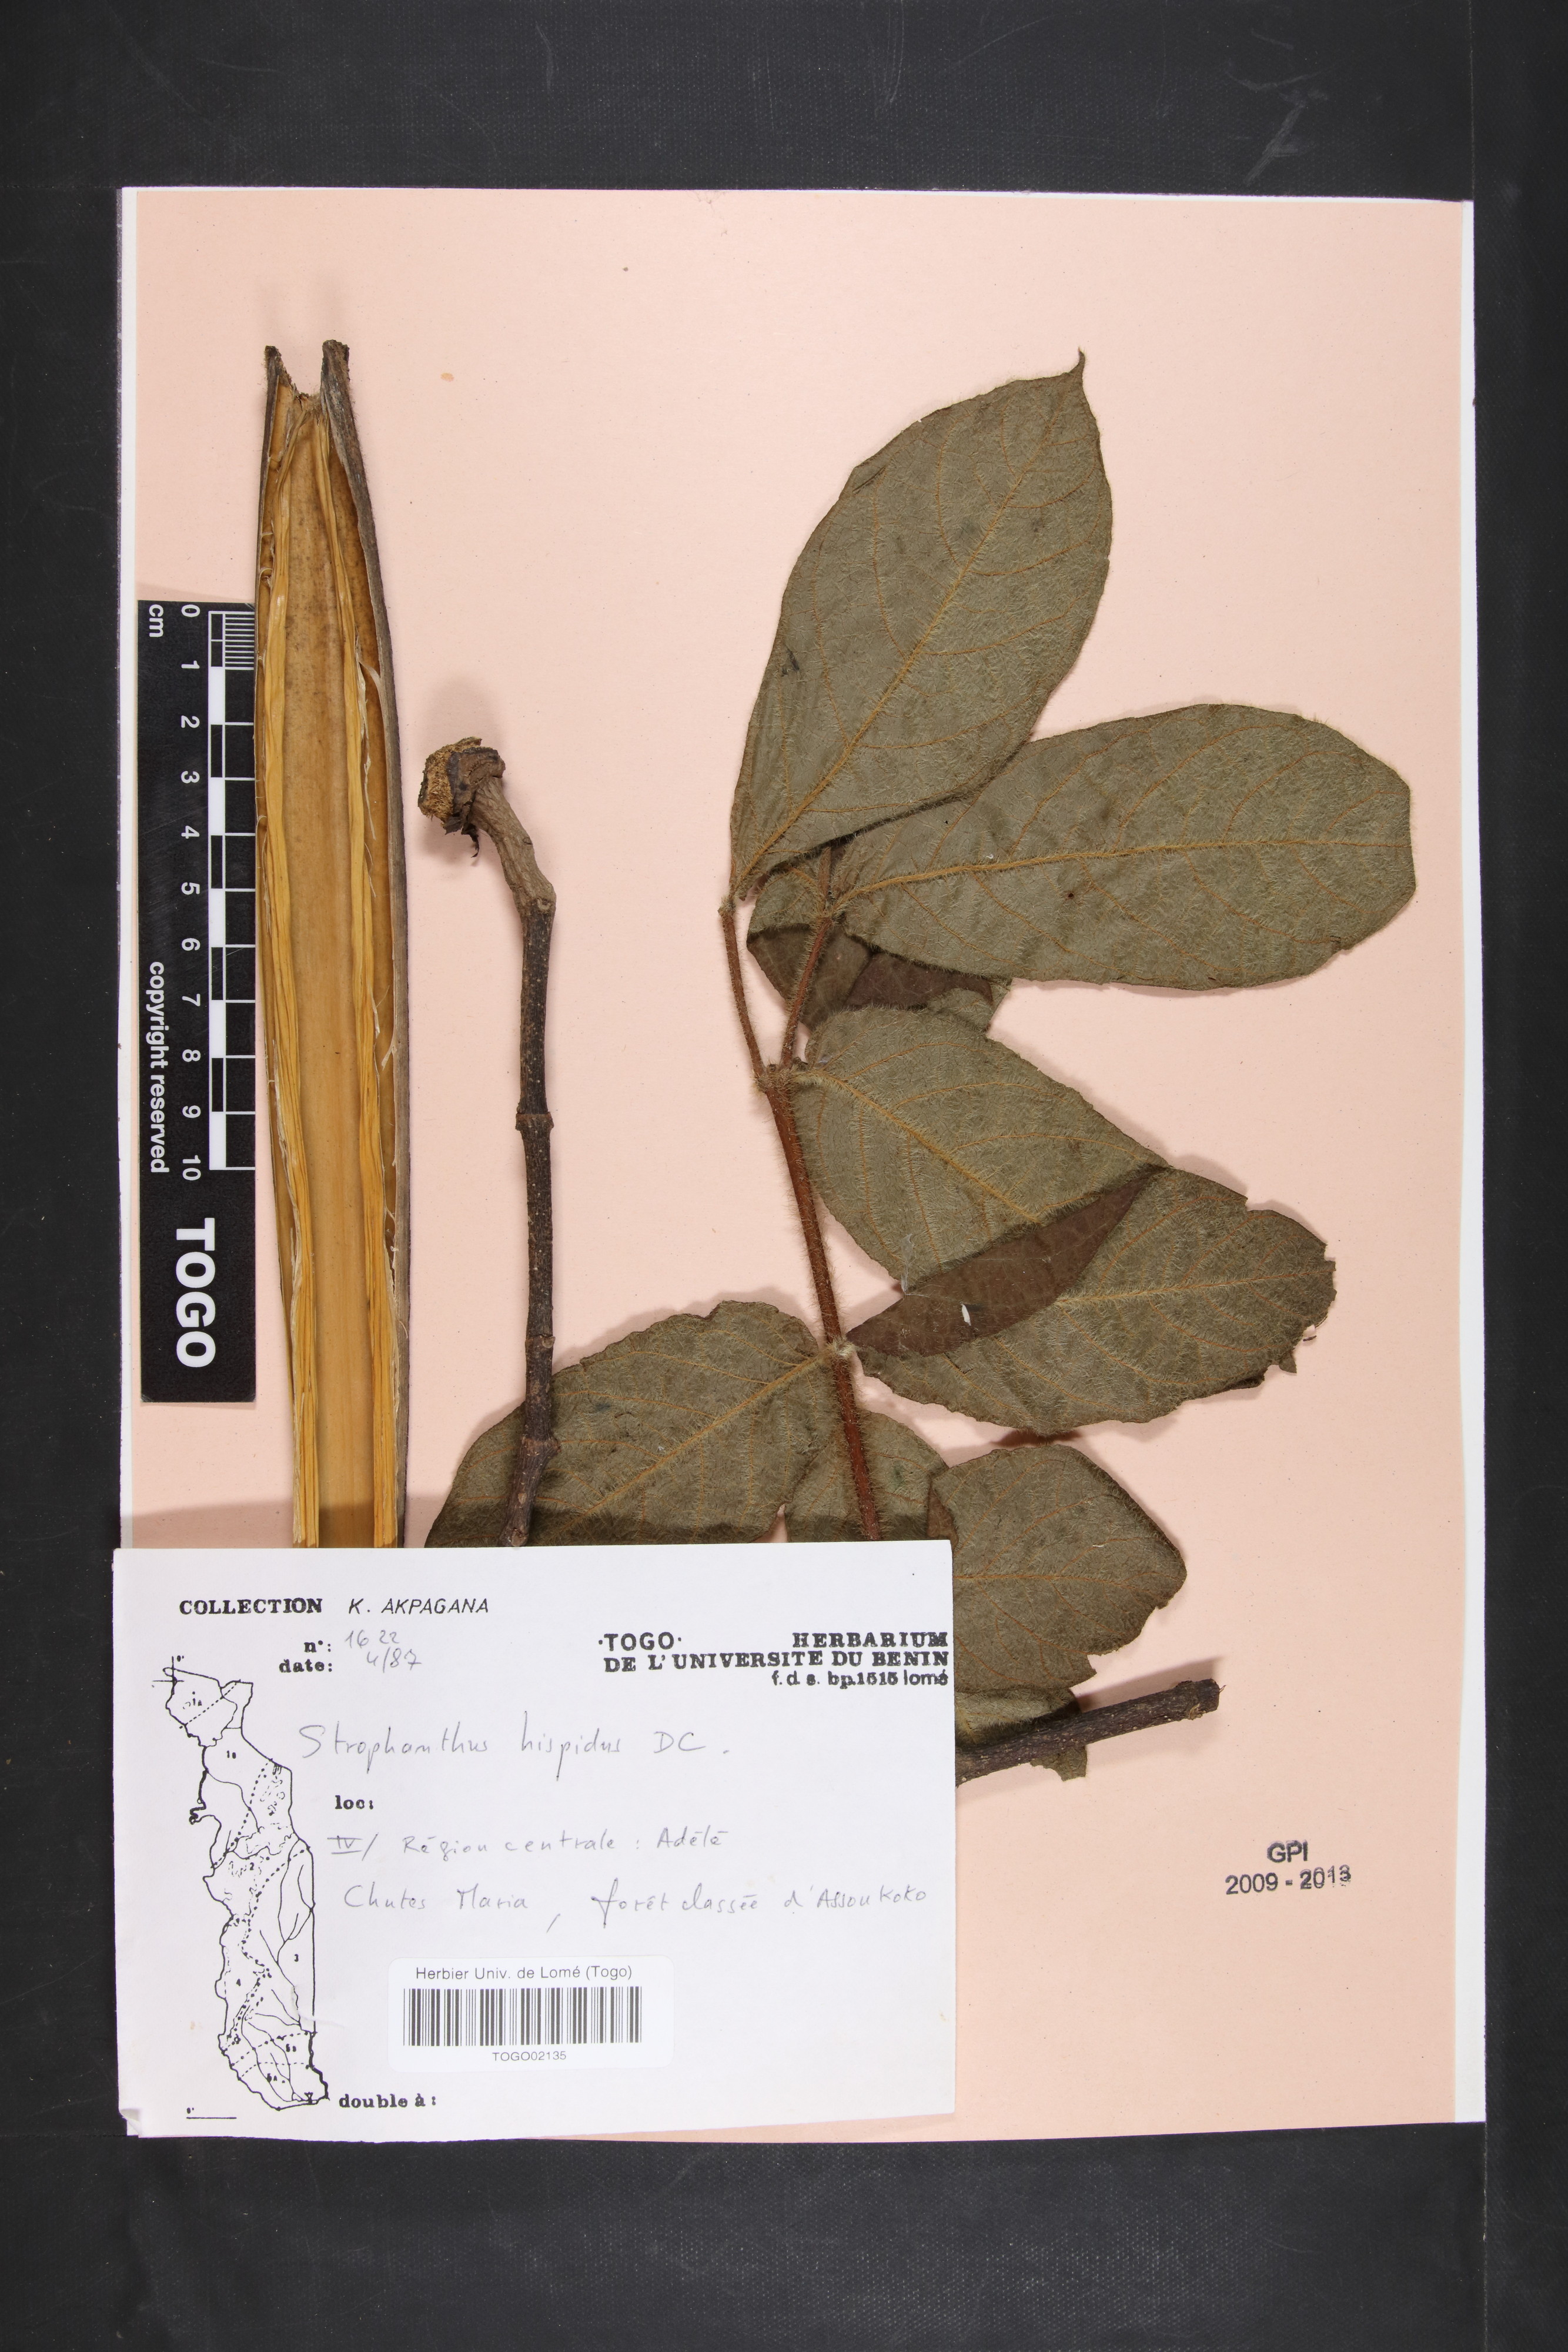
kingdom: Plantae
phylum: Tracheophyta
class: Magnoliopsida
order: Gentianales
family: Apocynaceae
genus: Strophanthus
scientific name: Strophanthus hispidus
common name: Hairy strophanthus
